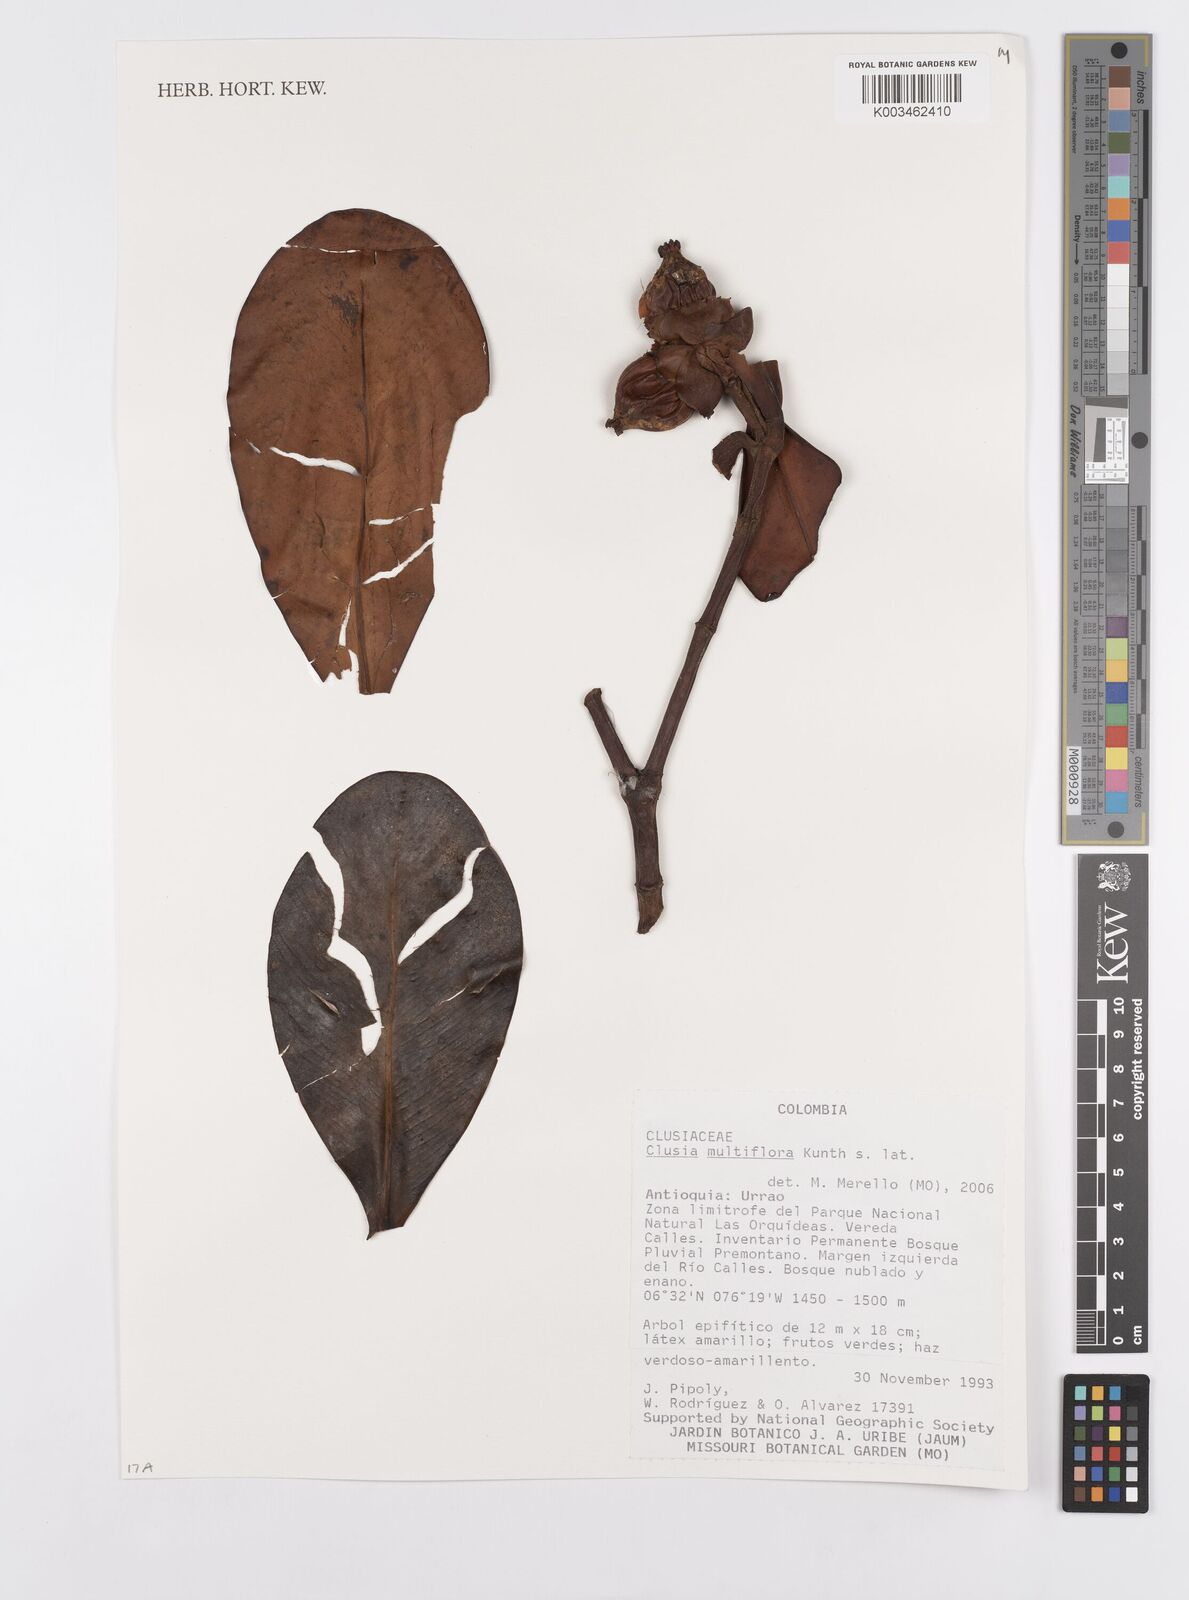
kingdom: Plantae
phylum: Tracheophyta
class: Magnoliopsida
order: Malpighiales
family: Clusiaceae
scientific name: Clusiaceae
